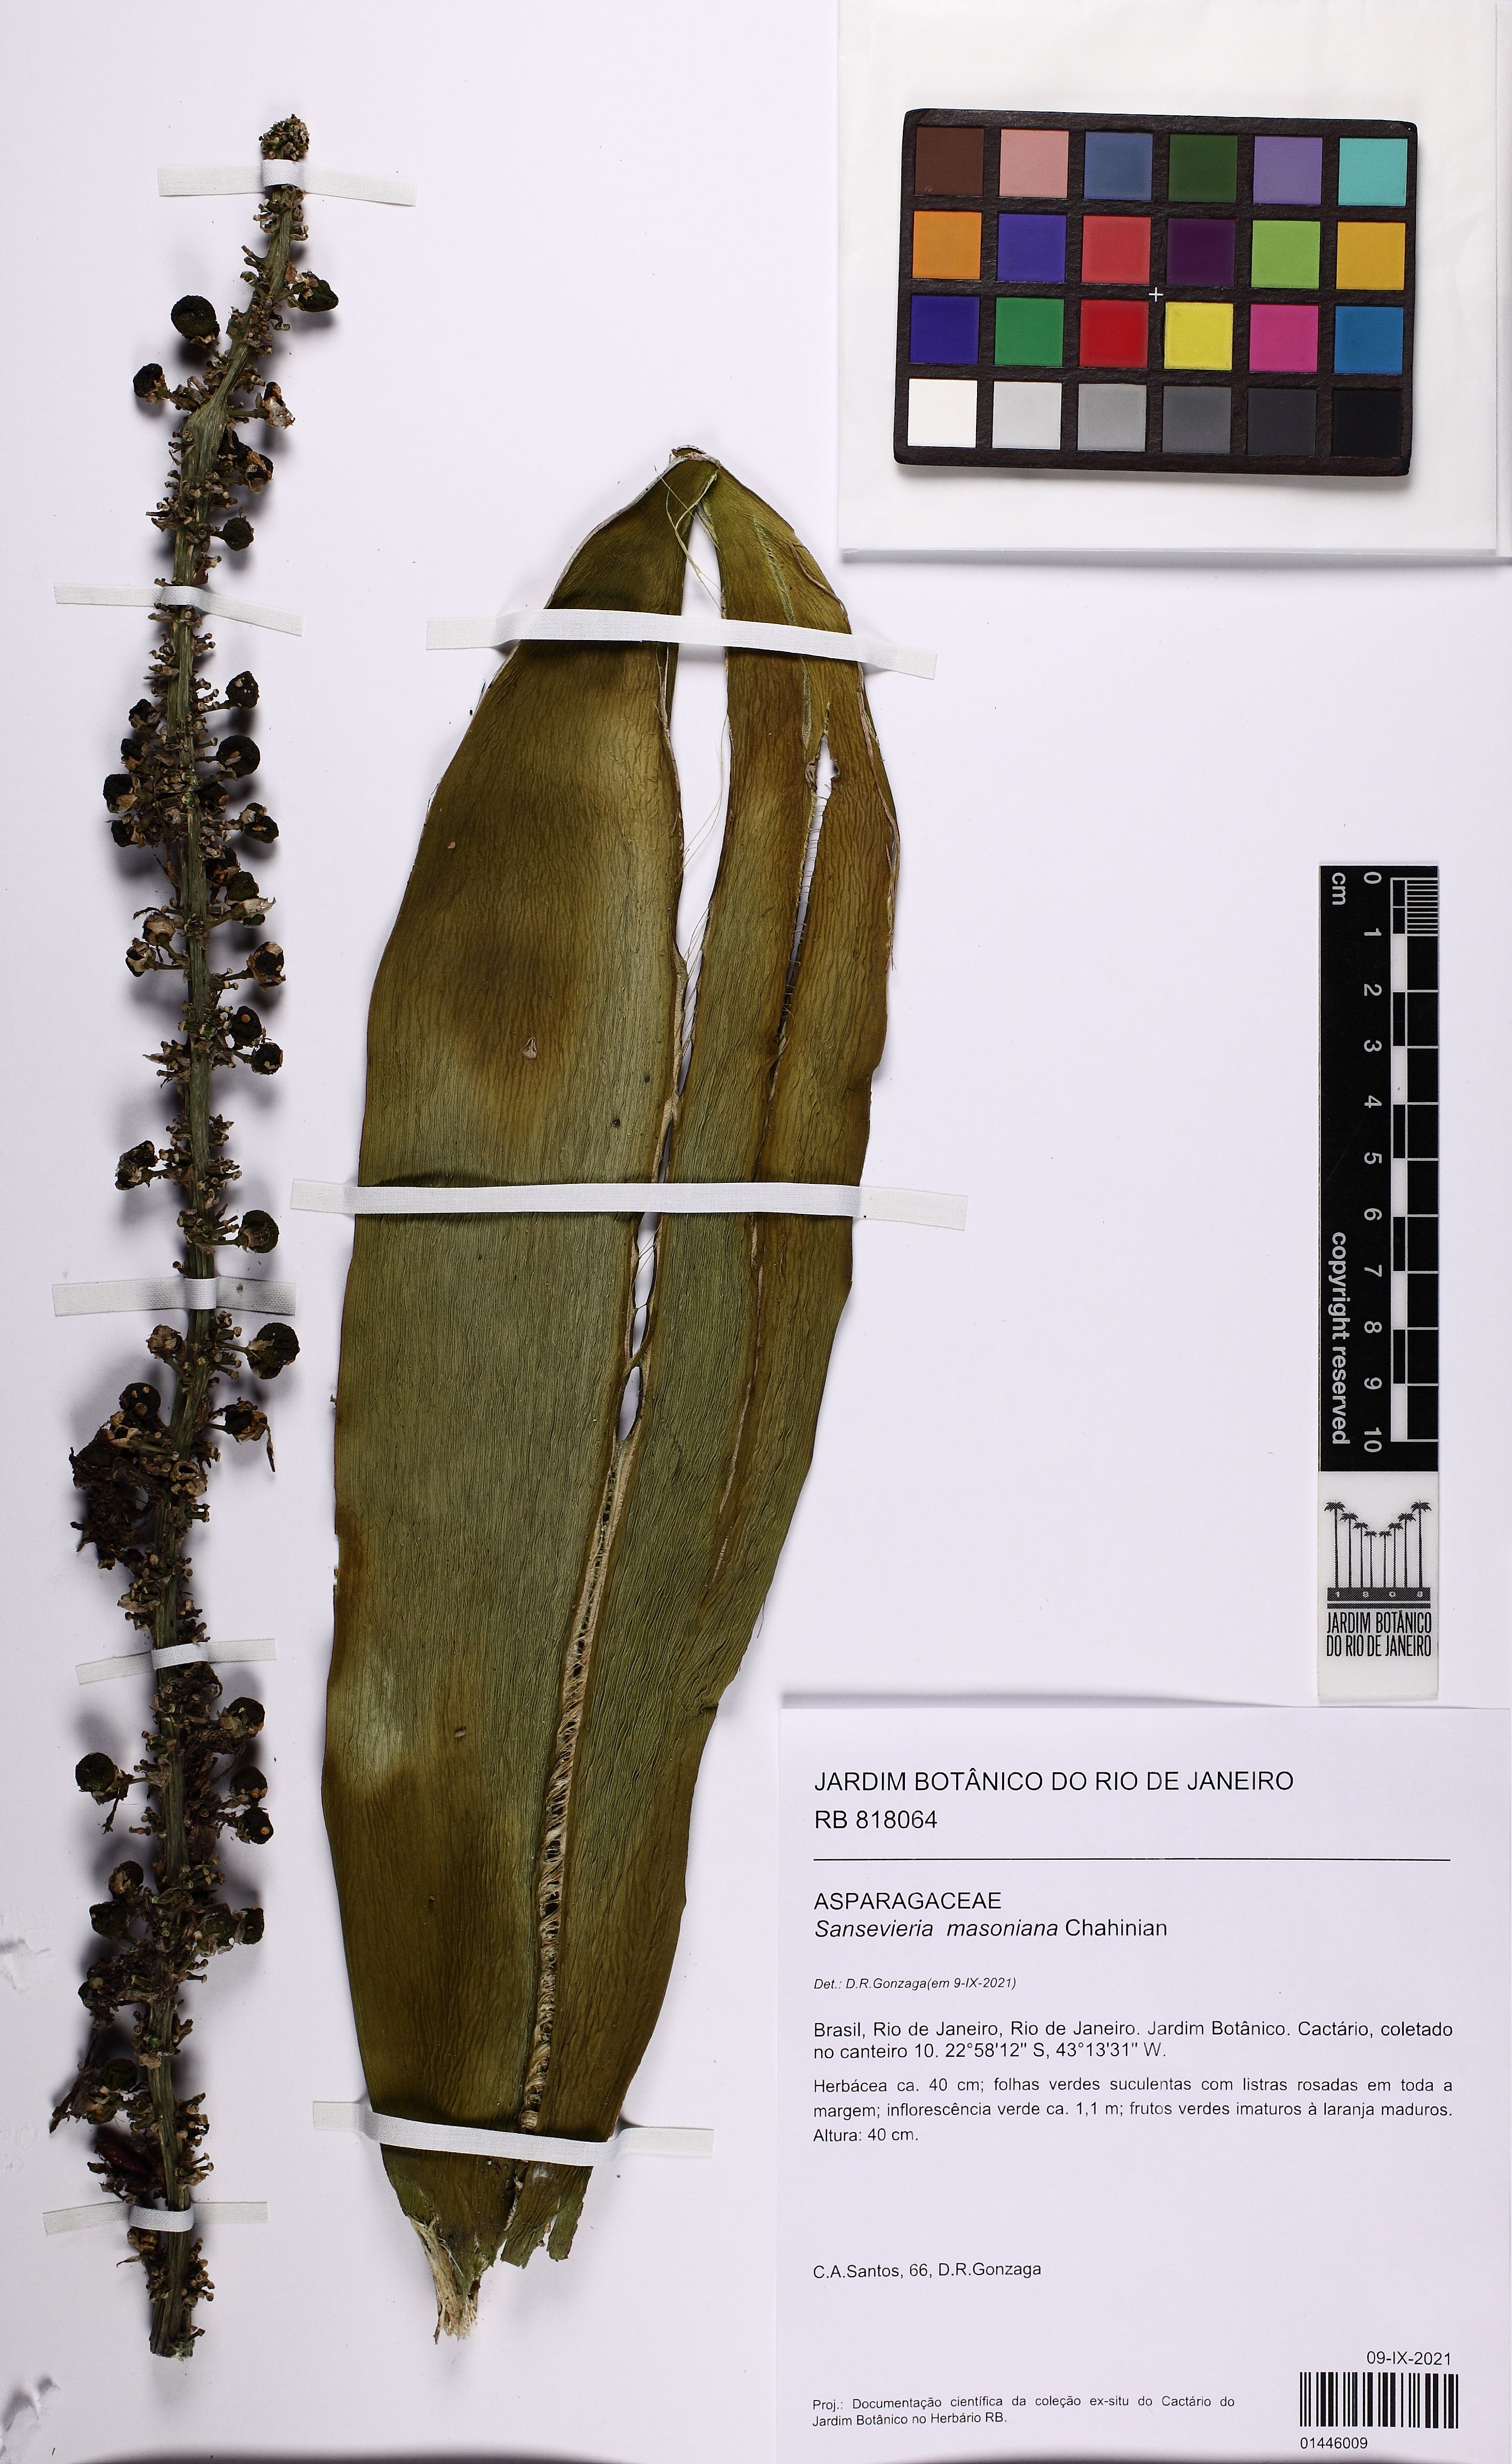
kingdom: Plantae
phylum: Tracheophyta
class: Liliopsida
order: Asparagales
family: Asparagaceae
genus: Dracaena
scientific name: Dracaena masoniana
